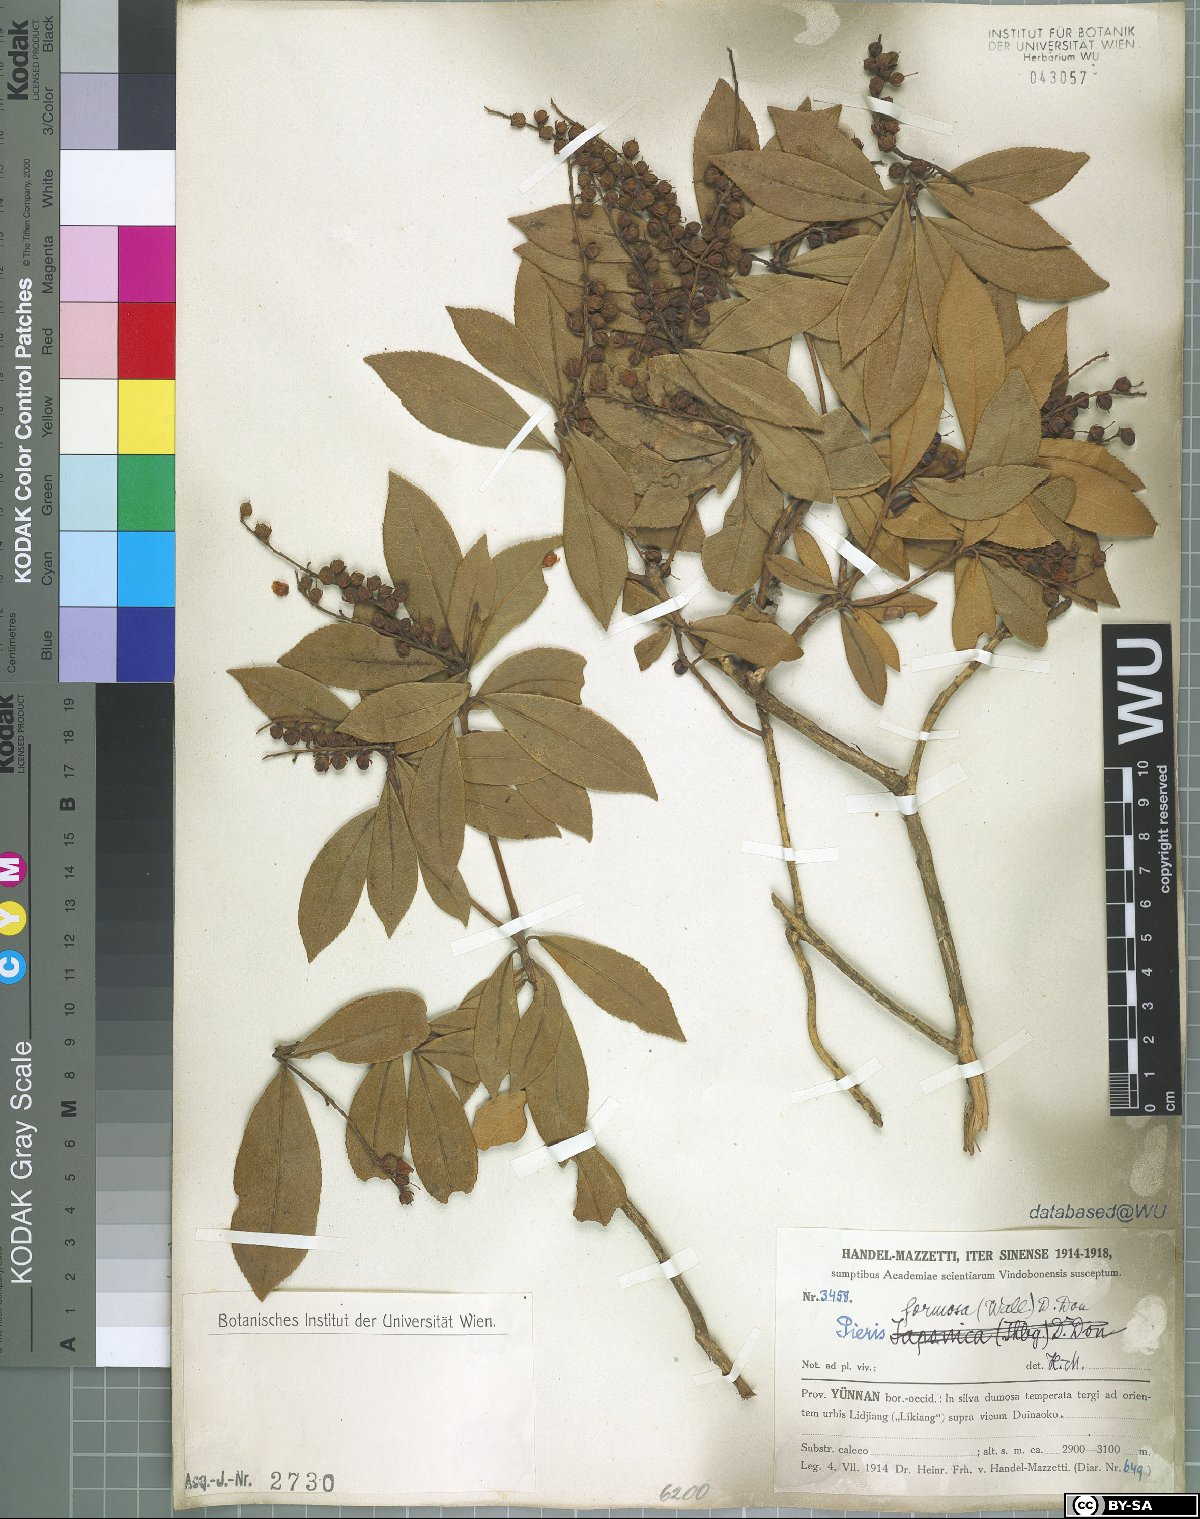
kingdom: Plantae
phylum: Tracheophyta
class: Magnoliopsida
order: Ericales
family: Ericaceae
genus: Pieris
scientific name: Pieris formosa
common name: Formosan pieris
